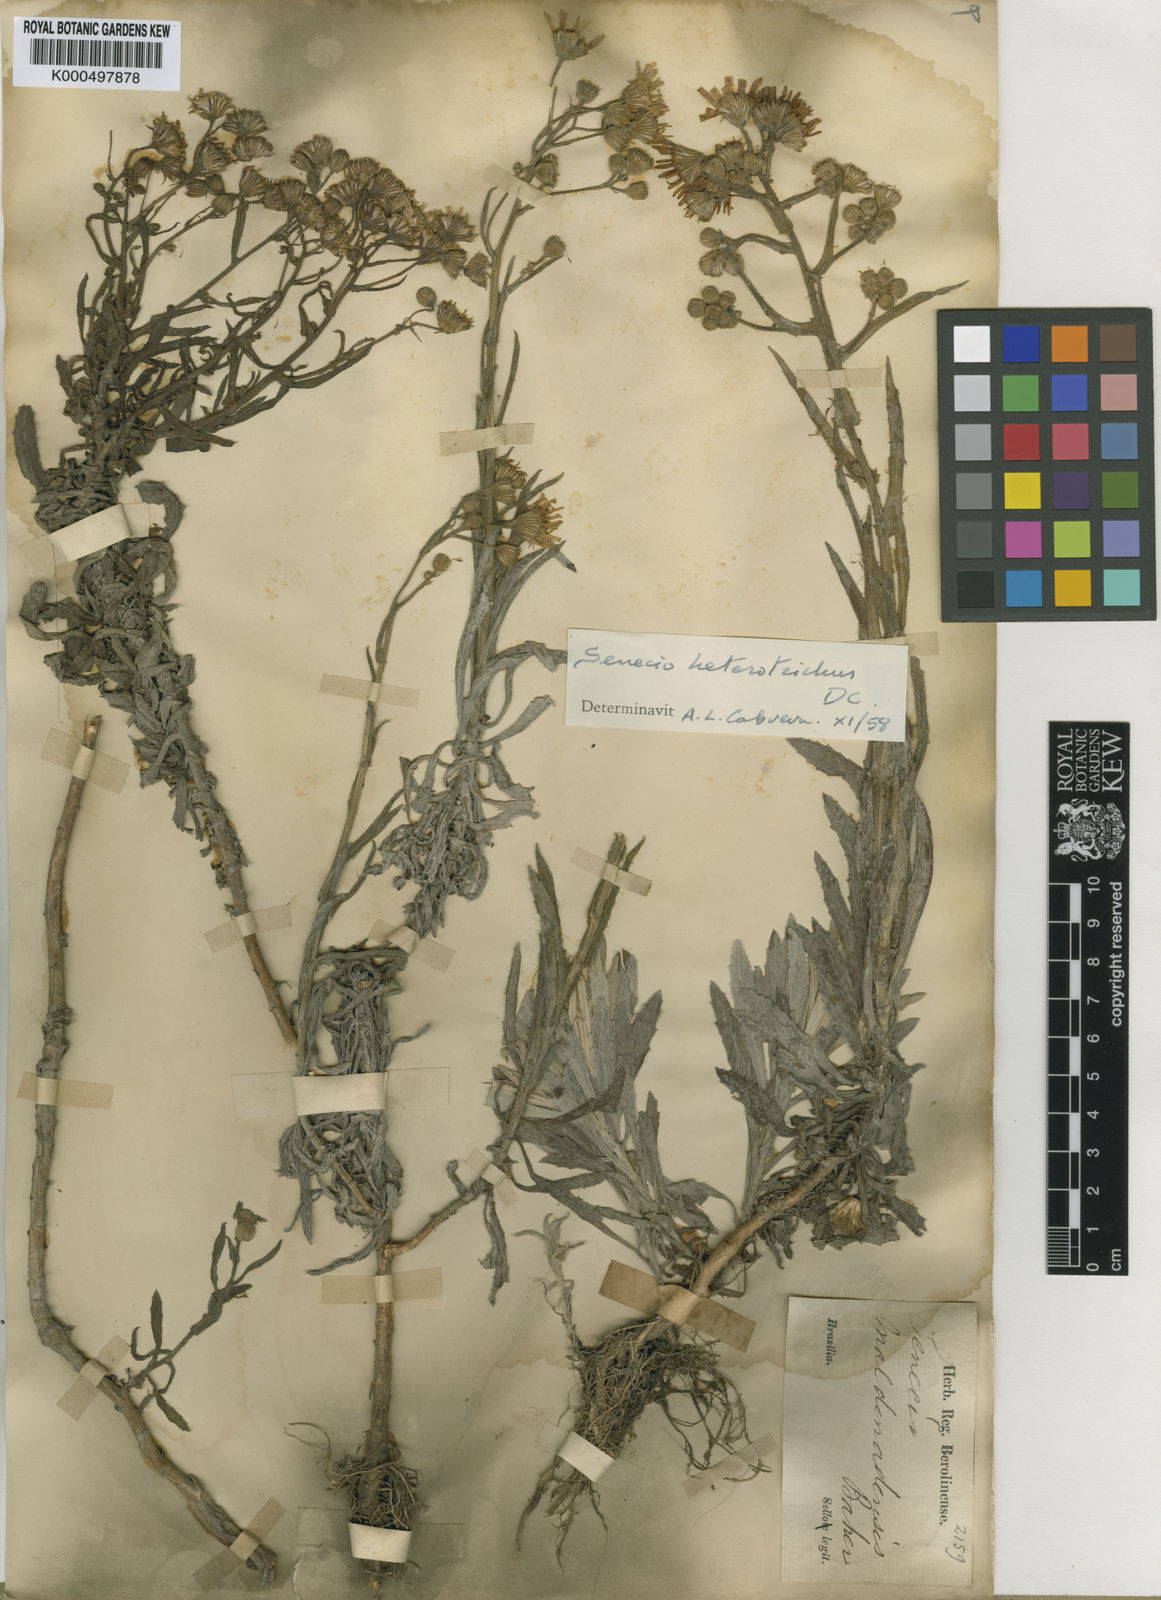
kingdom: Plantae
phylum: Tracheophyta
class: Magnoliopsida
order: Asterales
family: Asteraceae
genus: Senecio
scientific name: Senecio heterotrichus
